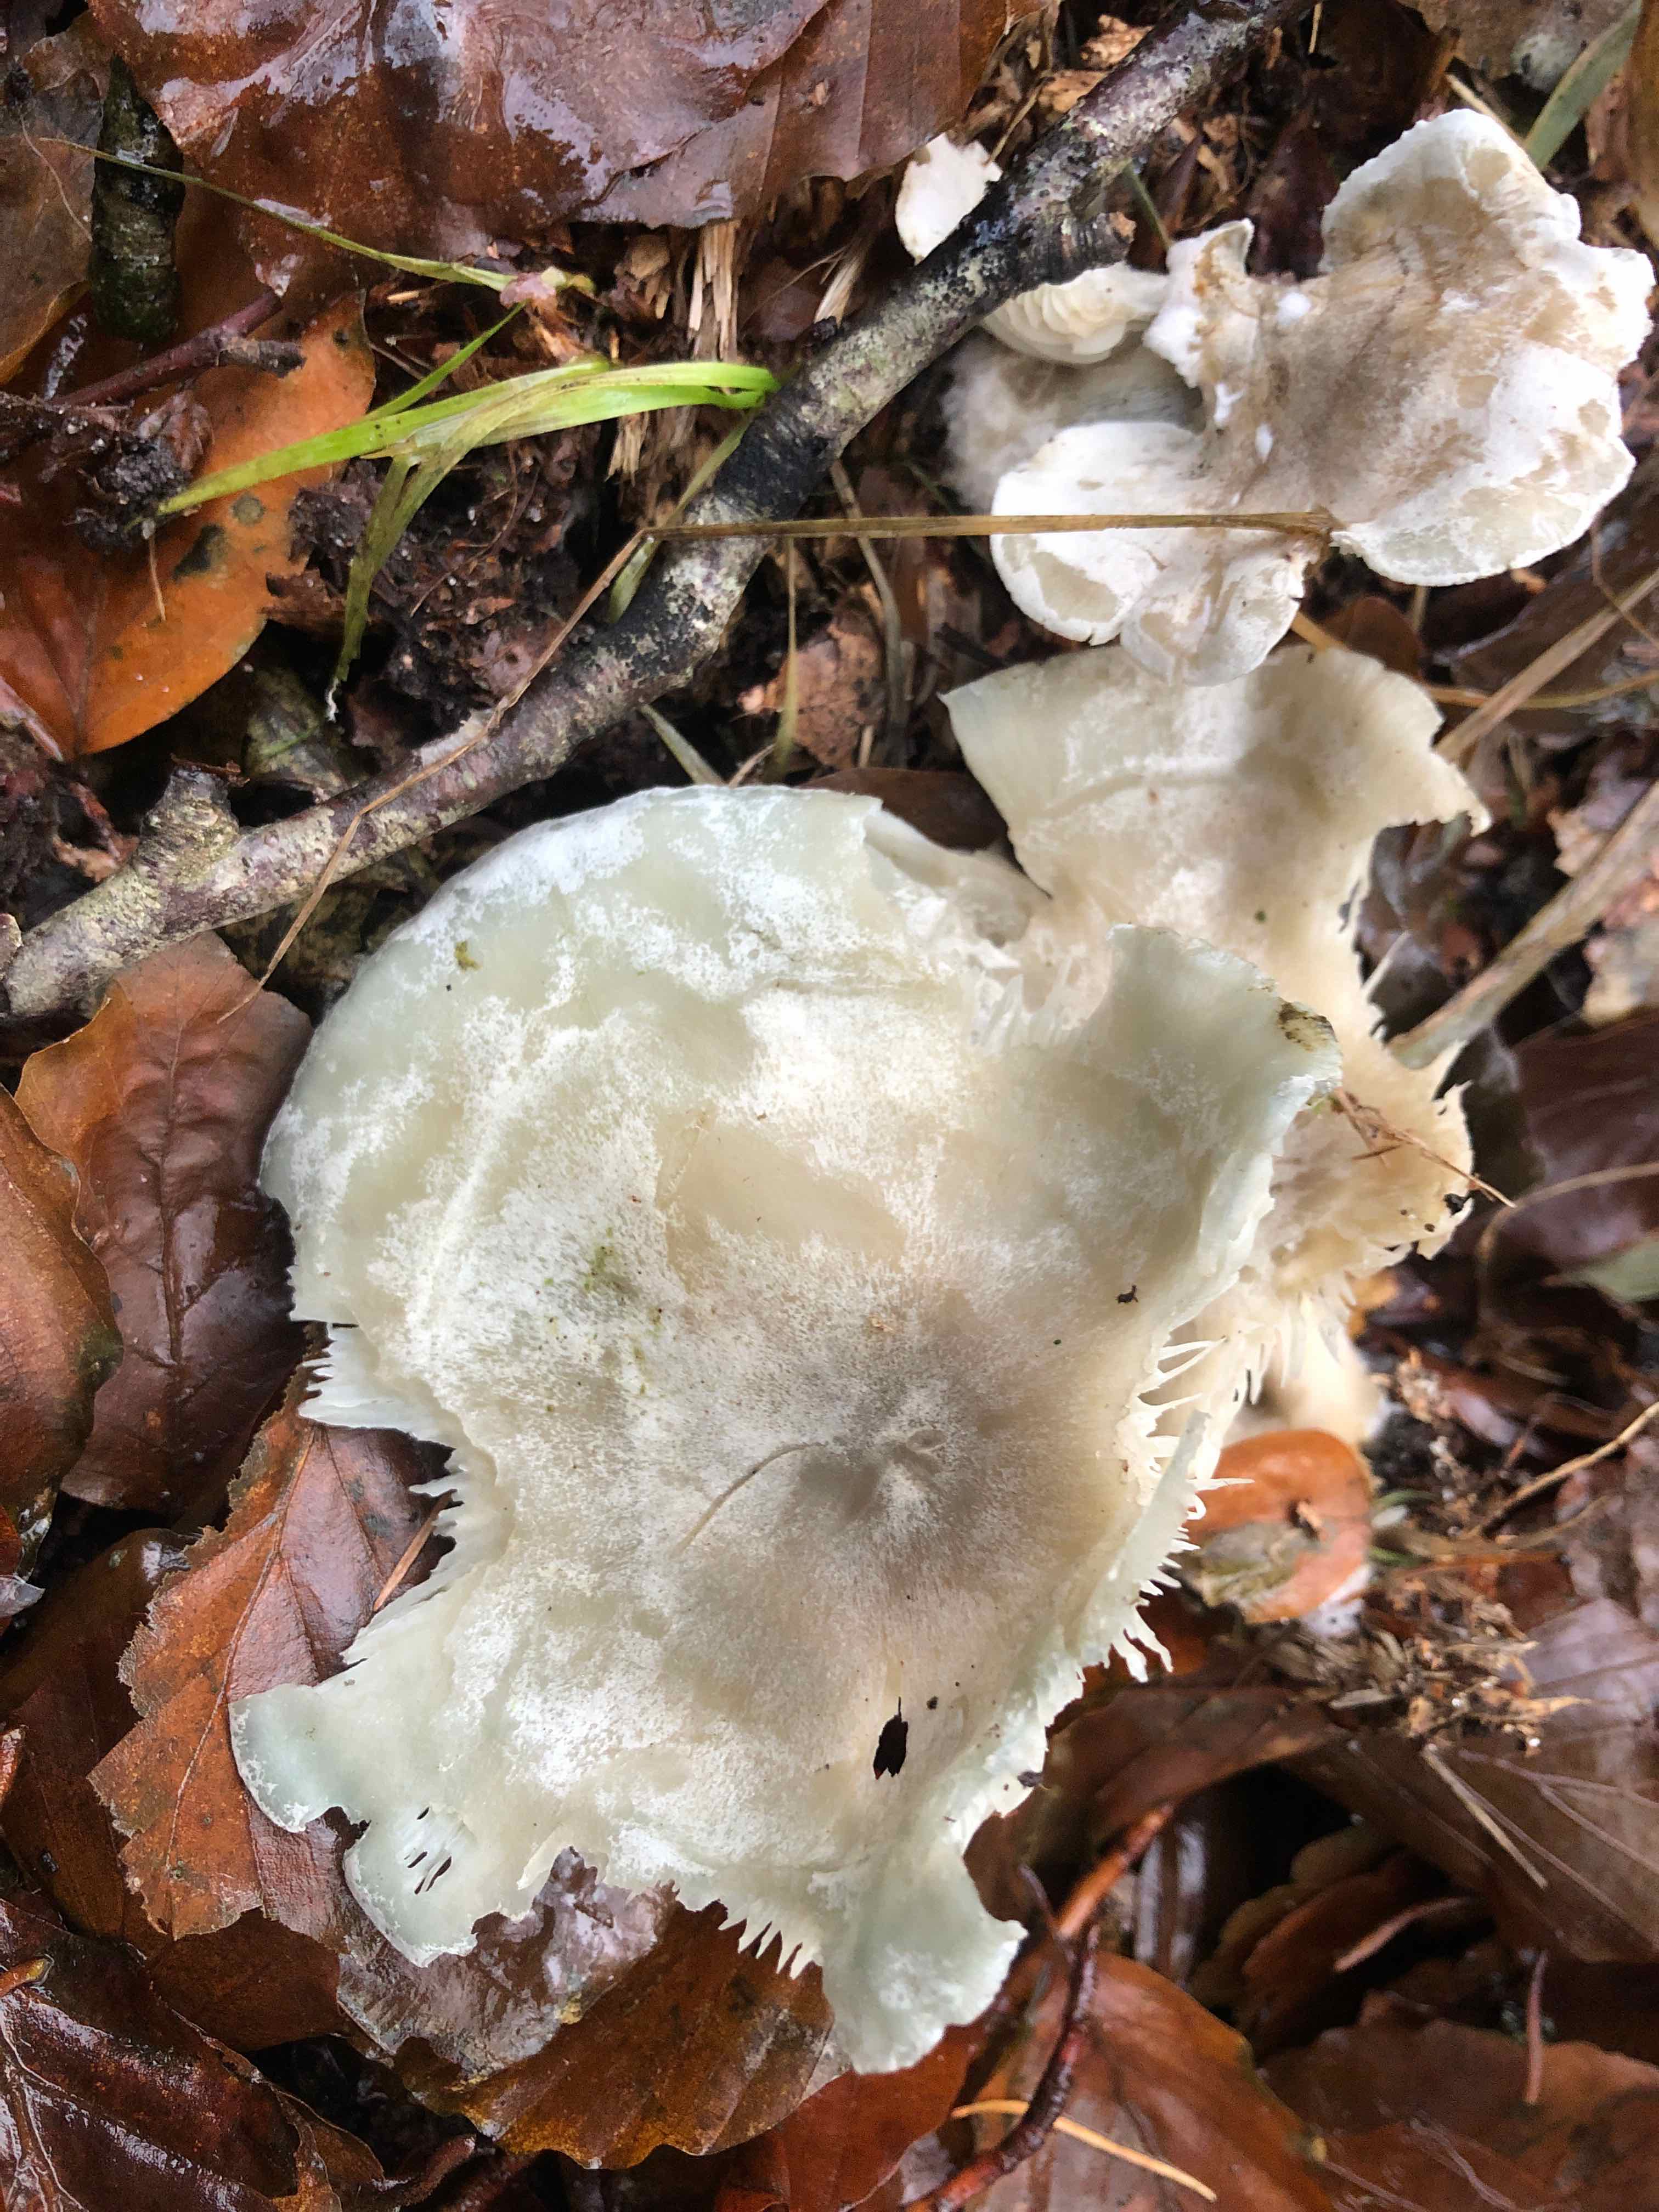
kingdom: Fungi
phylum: Basidiomycota
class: Agaricomycetes
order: Agaricales
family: Tricholomataceae
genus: Clitocybe
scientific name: Clitocybe odora
